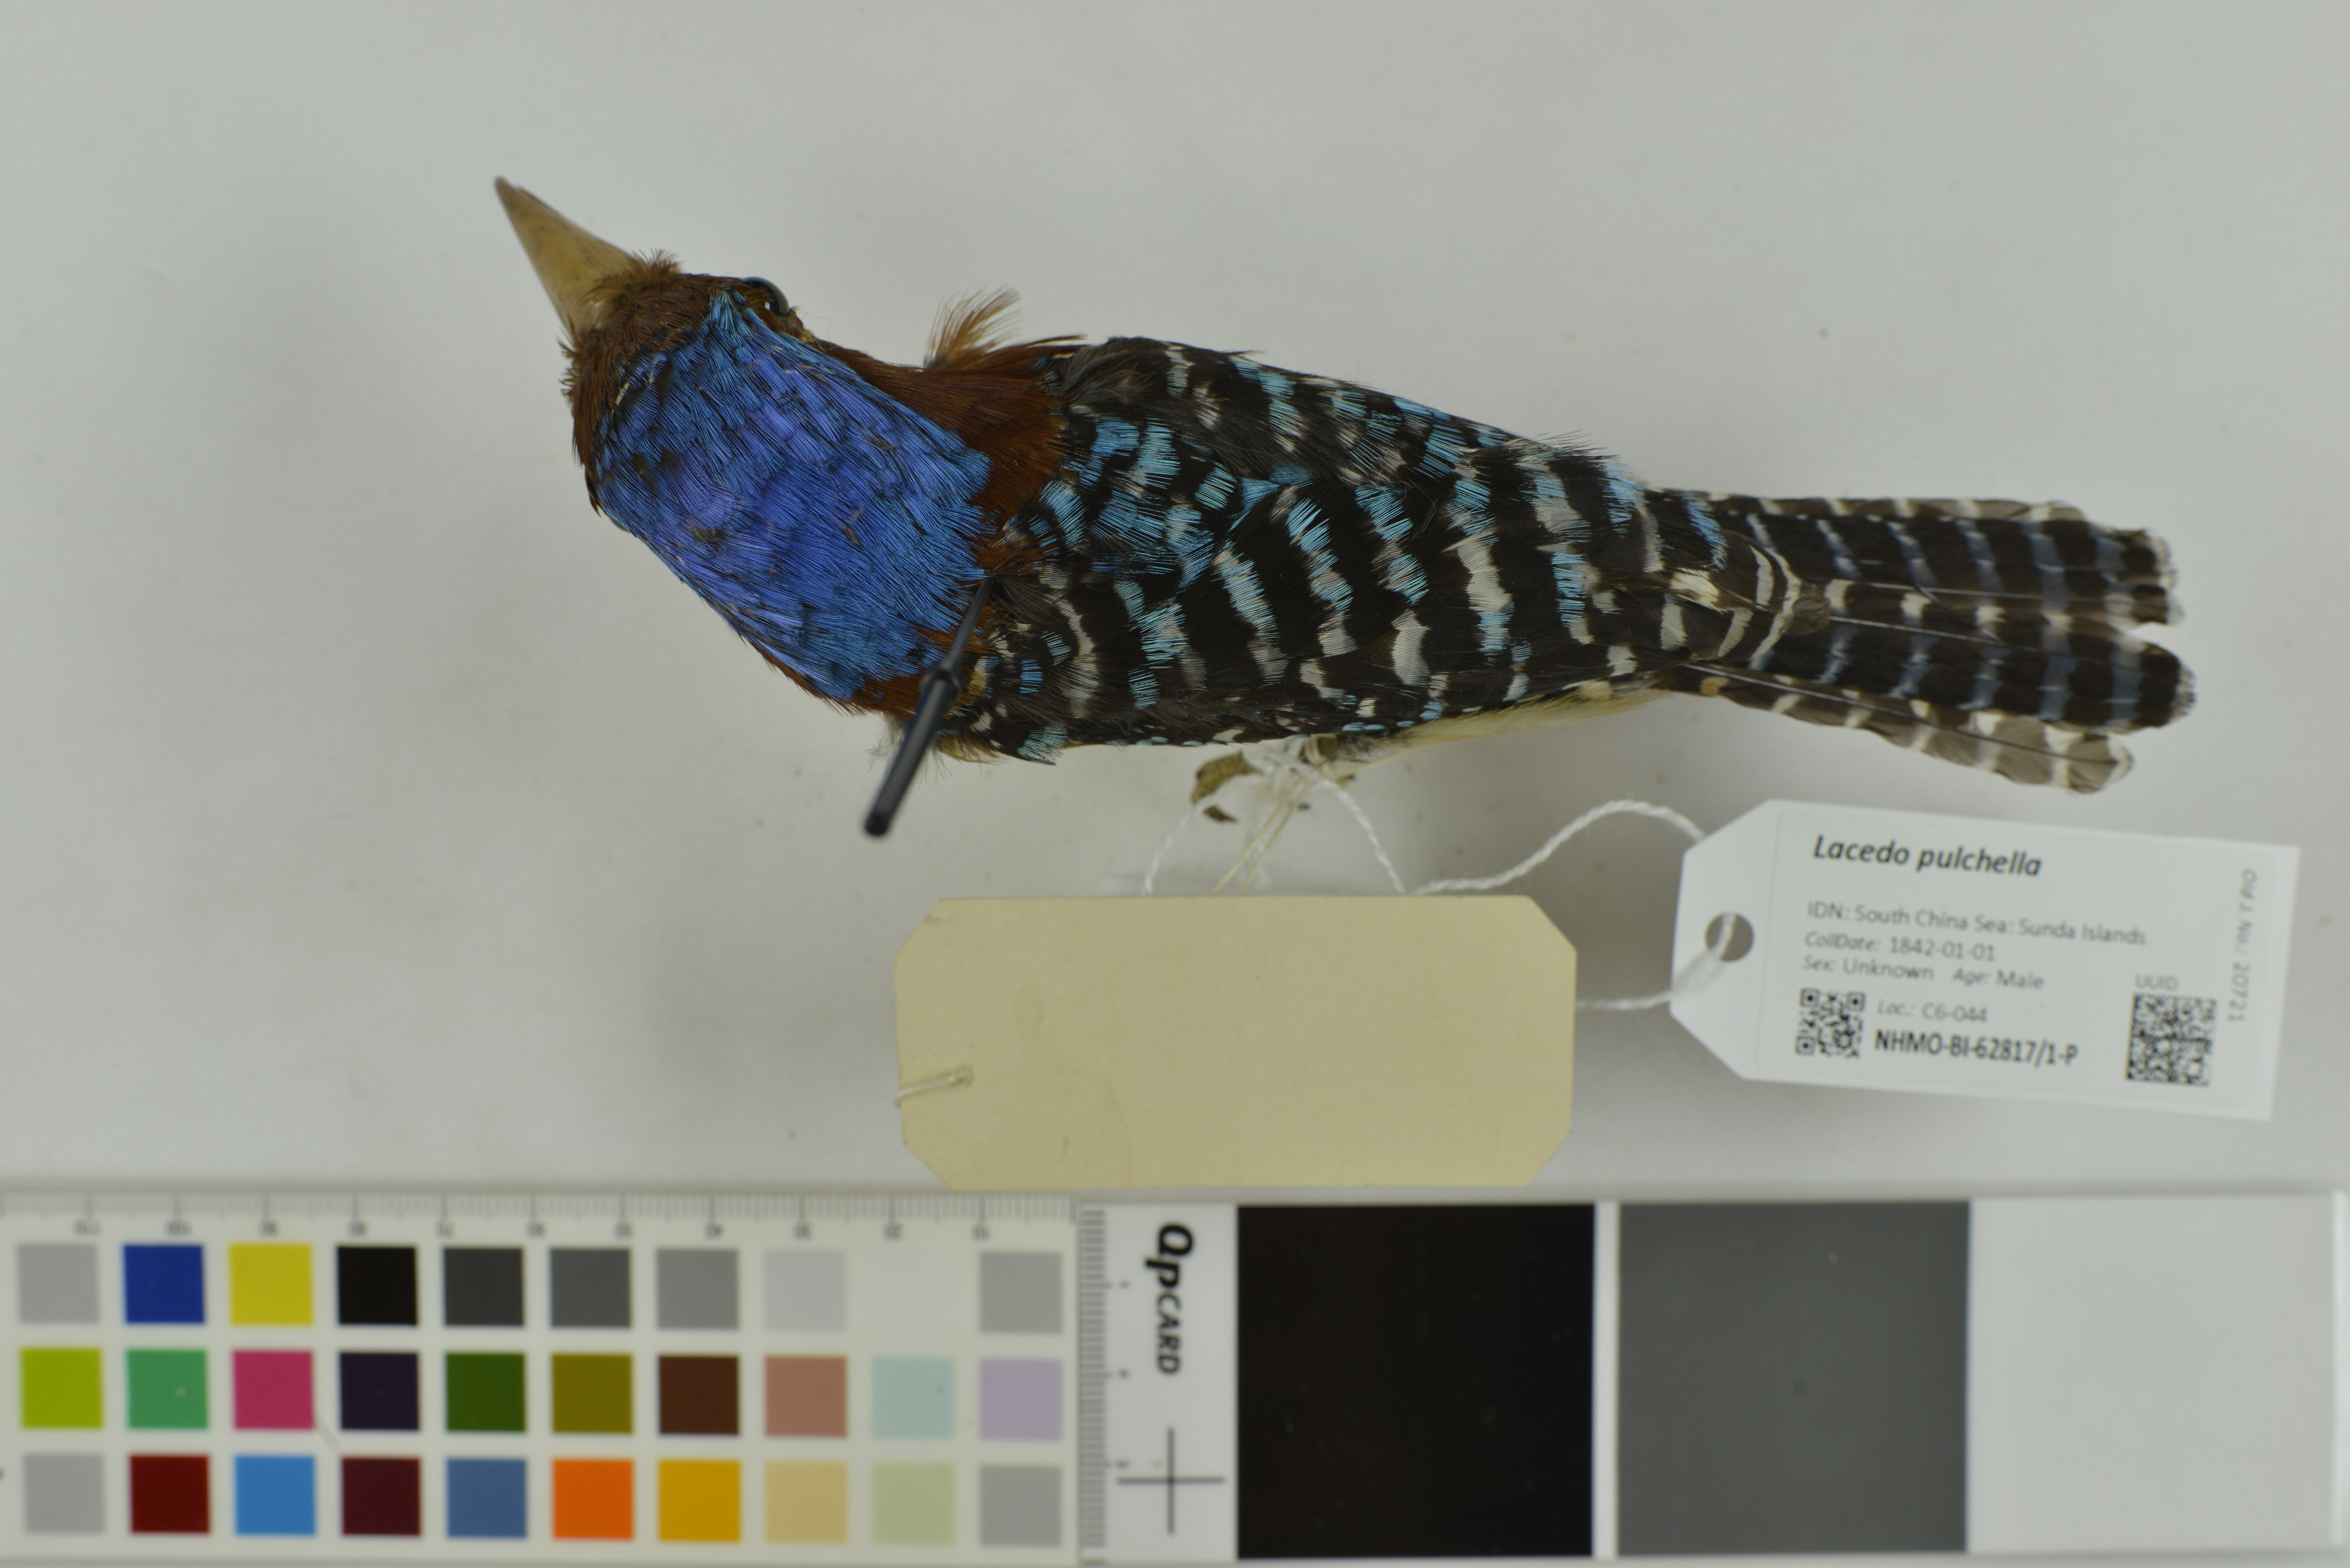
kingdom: Animalia
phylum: Chordata
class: Aves
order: Coraciiformes
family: Alcedinidae
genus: Lacedo
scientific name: Lacedo pulchella
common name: Banded kingfisher
